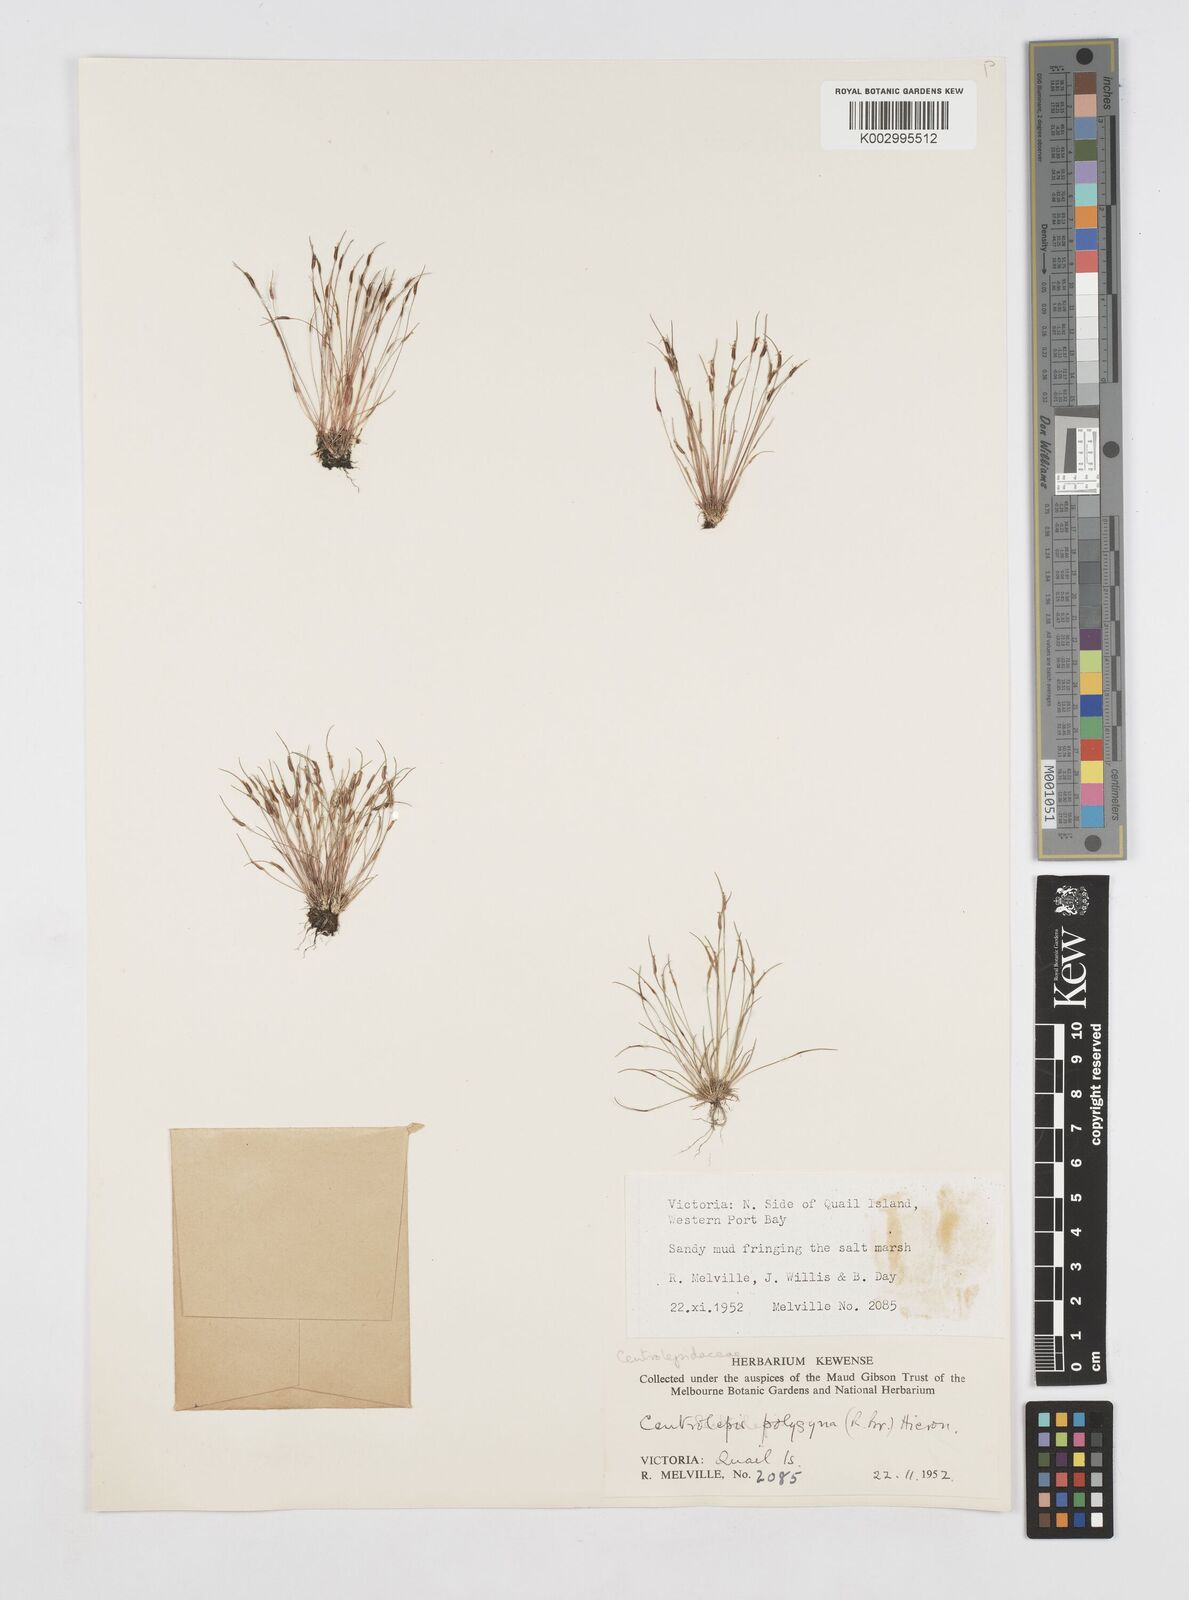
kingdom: Plantae
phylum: Tracheophyta
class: Liliopsida
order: Poales
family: Restionaceae
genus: Centrolepis
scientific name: Centrolepis polygyna
